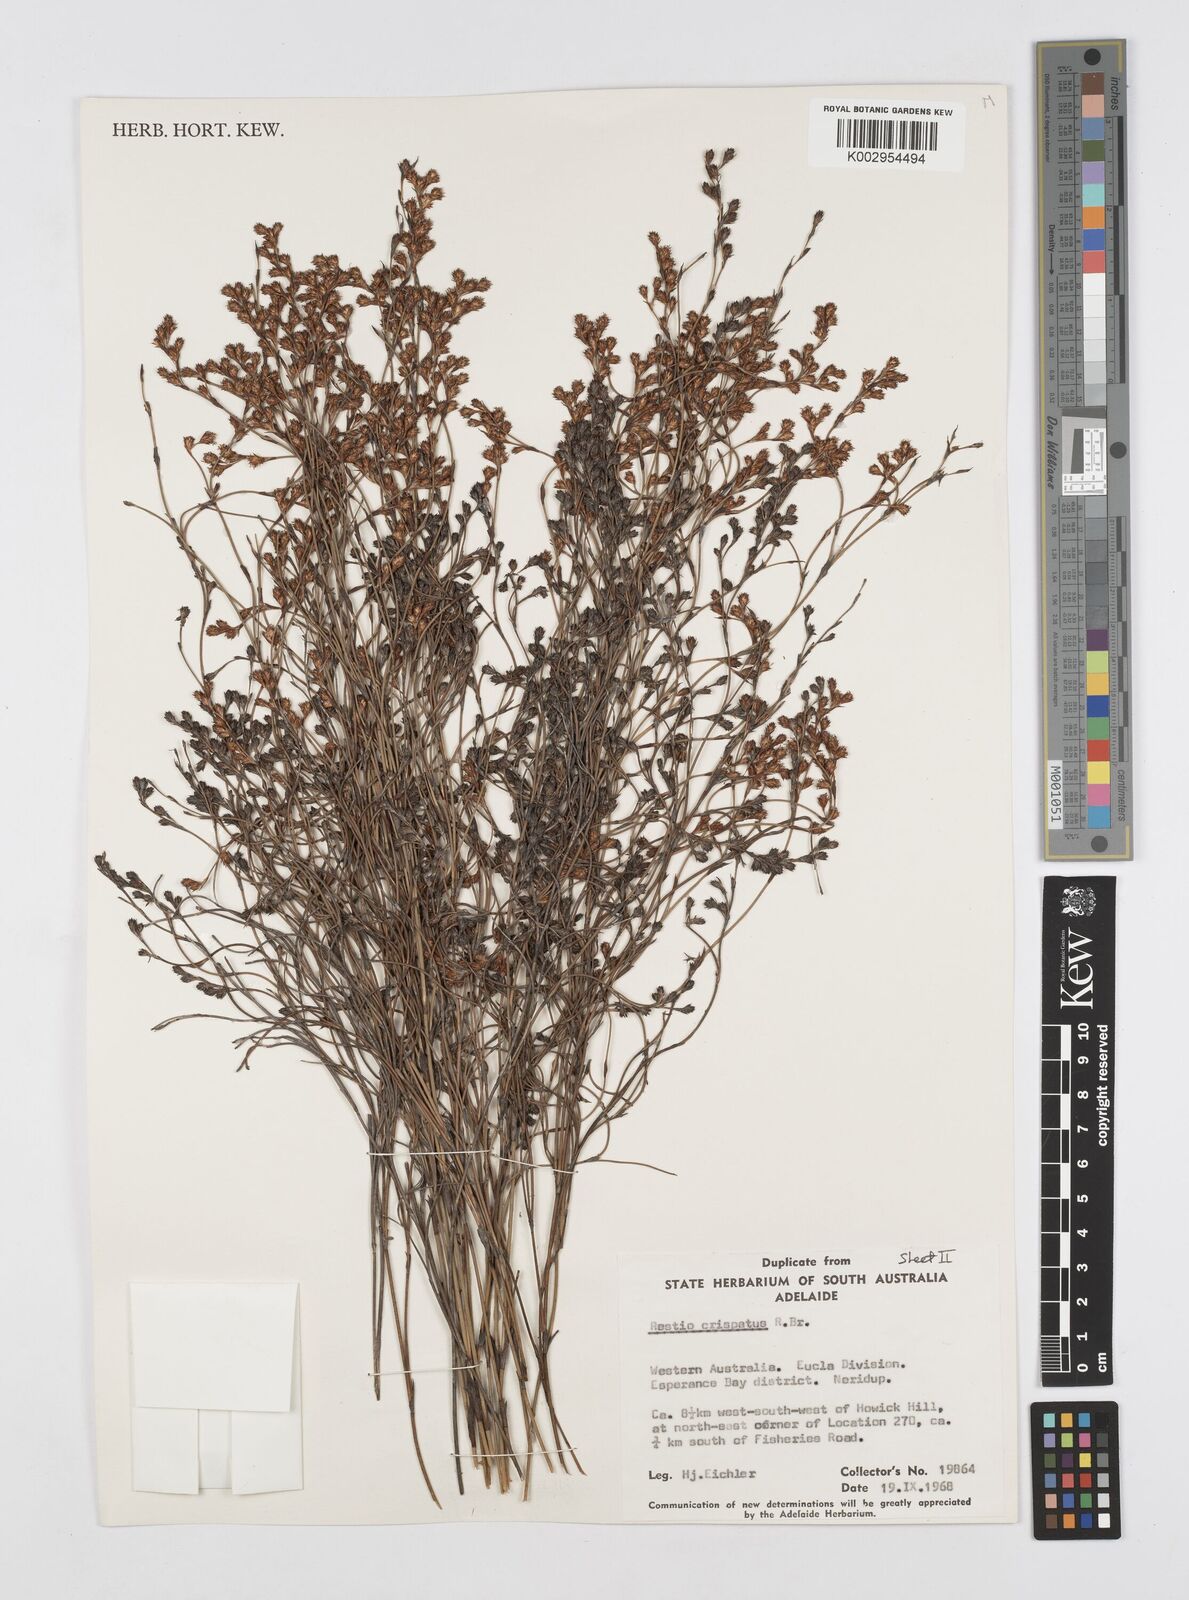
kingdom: Plantae
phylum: Tracheophyta
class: Liliopsida
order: Poales
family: Restionaceae
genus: Chordifex
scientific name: Chordifex crispatus
